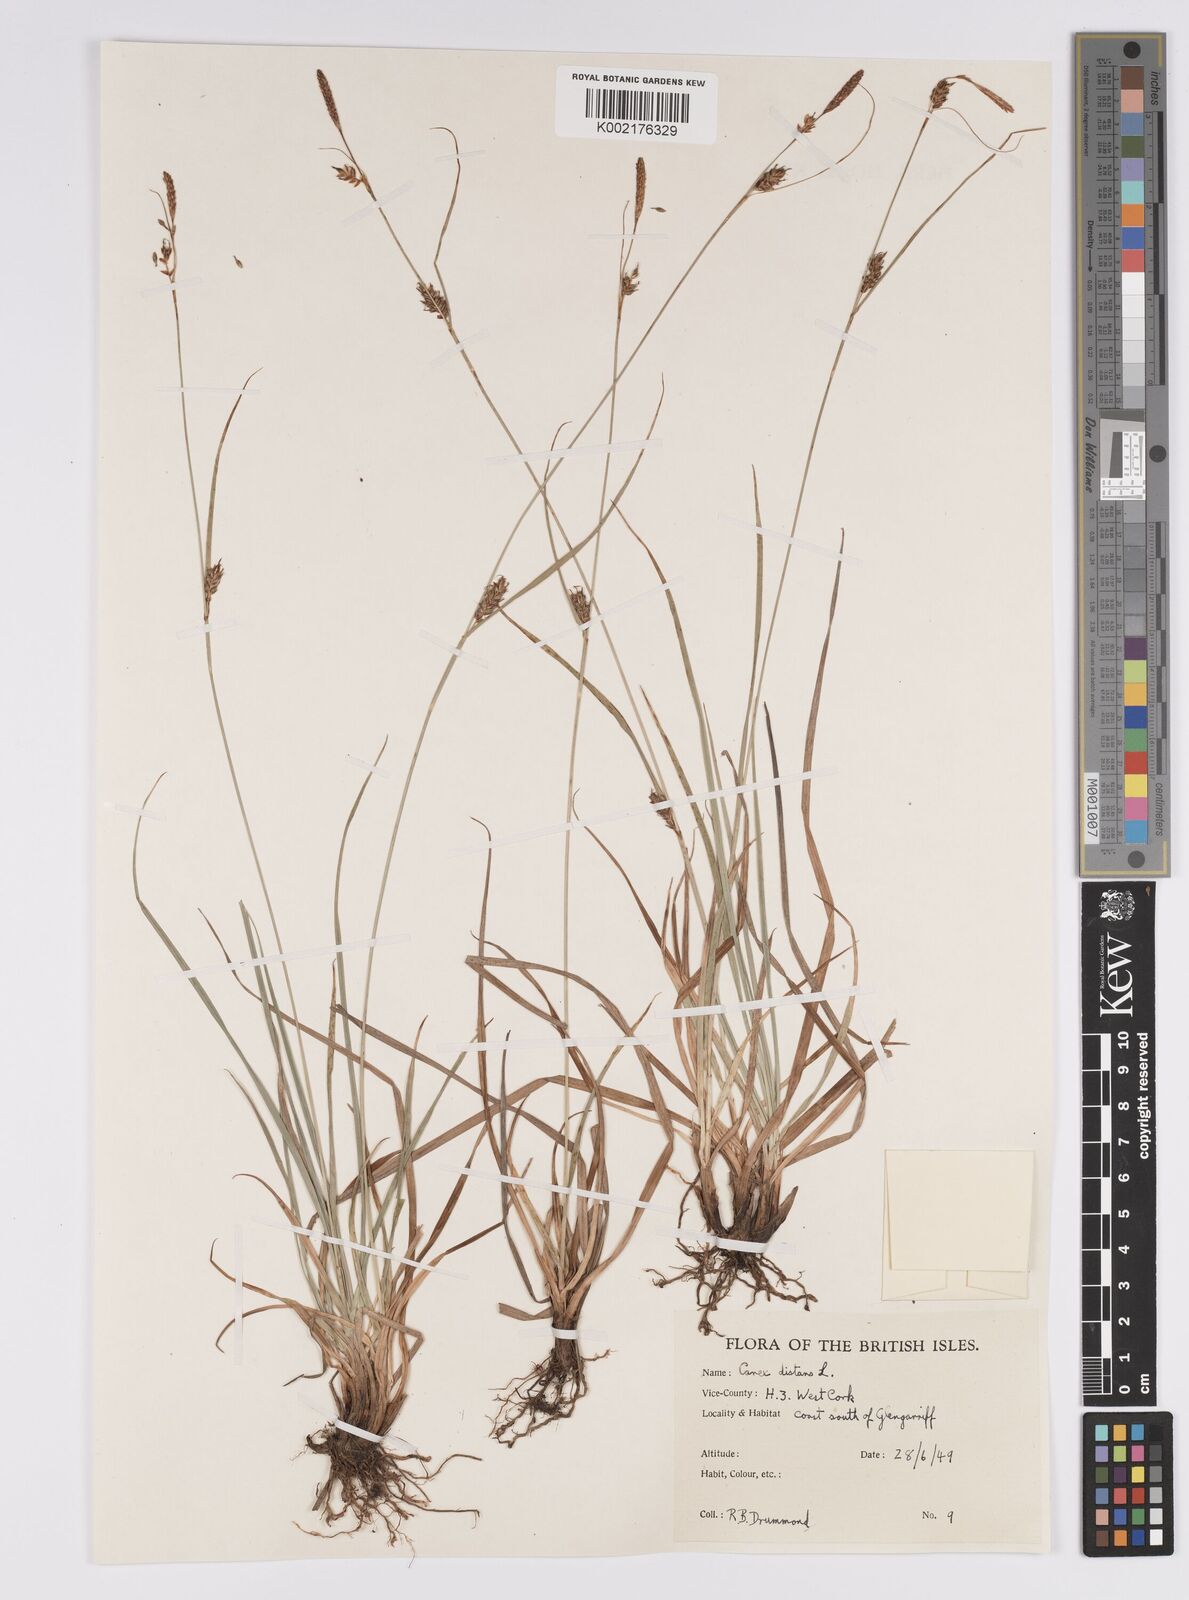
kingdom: Plantae
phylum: Tracheophyta
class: Liliopsida
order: Poales
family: Cyperaceae
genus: Carex
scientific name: Carex distans
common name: Distant sedge
